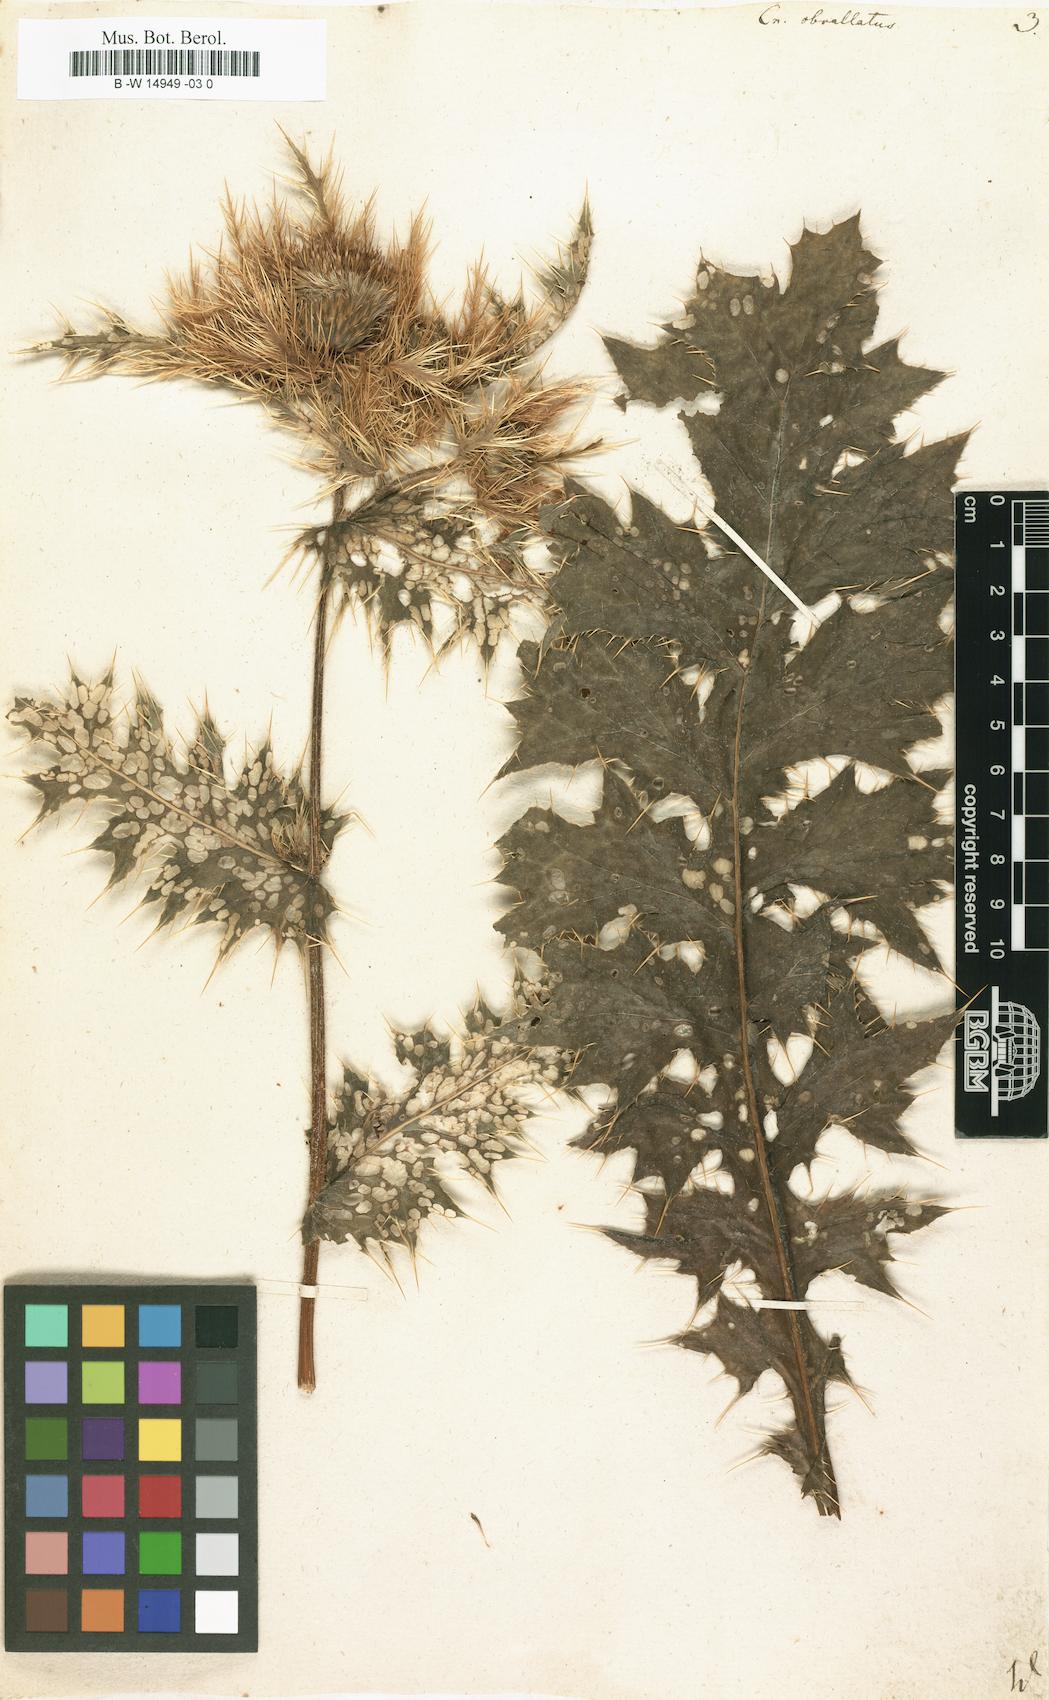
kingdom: Plantae
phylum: Tracheophyta
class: Magnoliopsida
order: Asterales
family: Asteraceae
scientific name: Asteraceae
